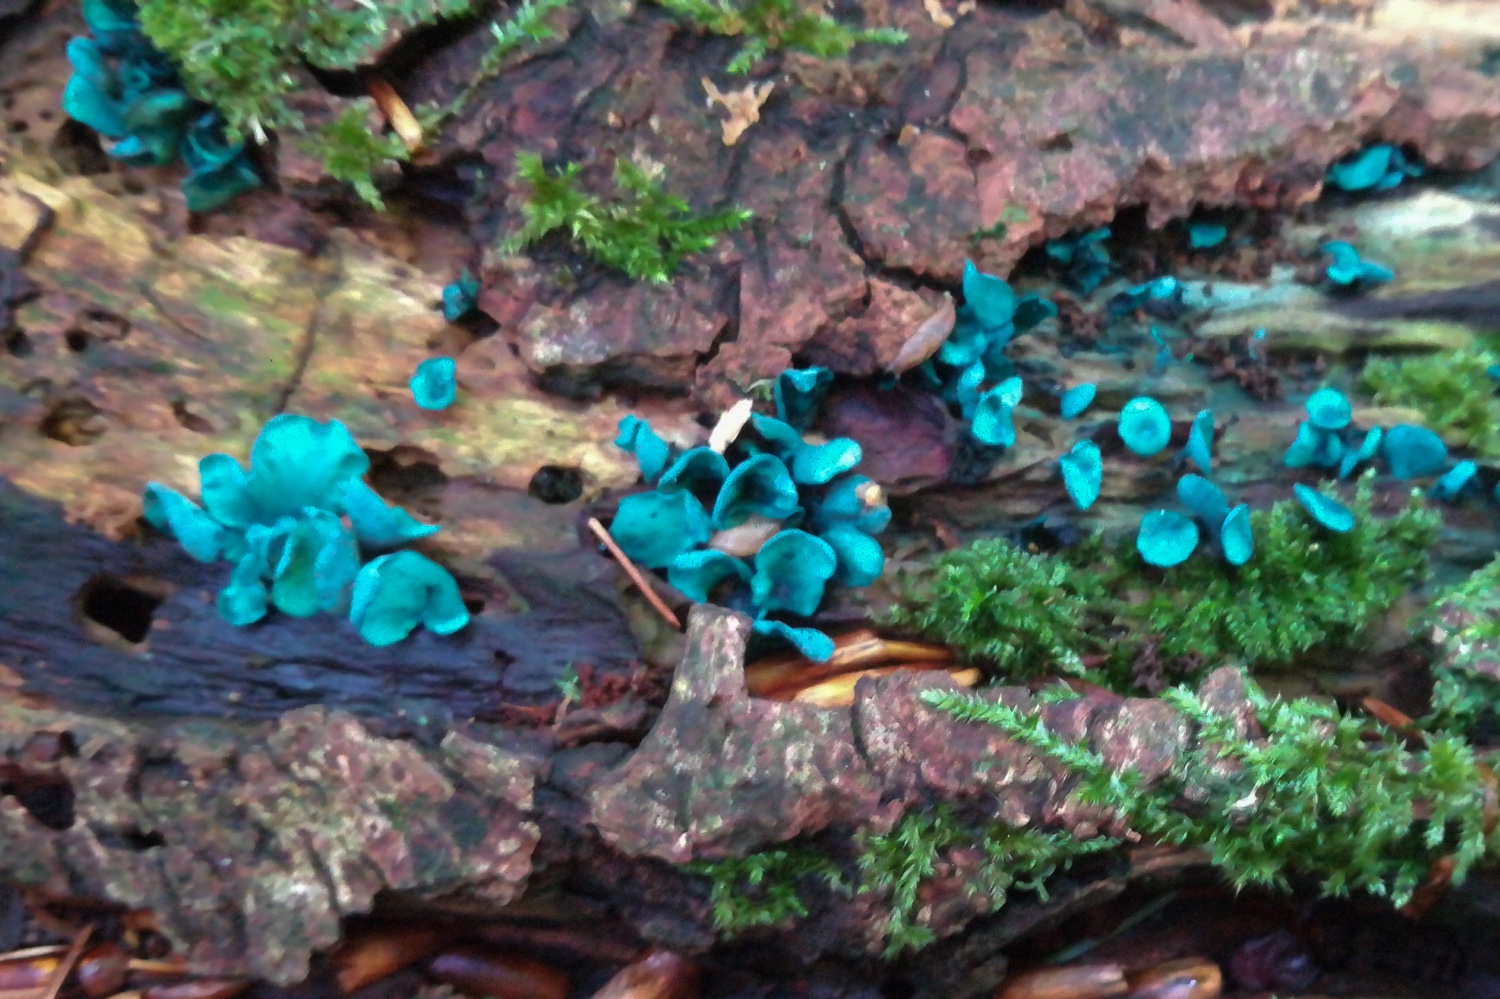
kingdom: Fungi
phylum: Ascomycota
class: Leotiomycetes
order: Helotiales
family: Chlorociboriaceae
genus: Chlorociboria
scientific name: Chlorociboria aeruginascens
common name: almindelig grønskive
